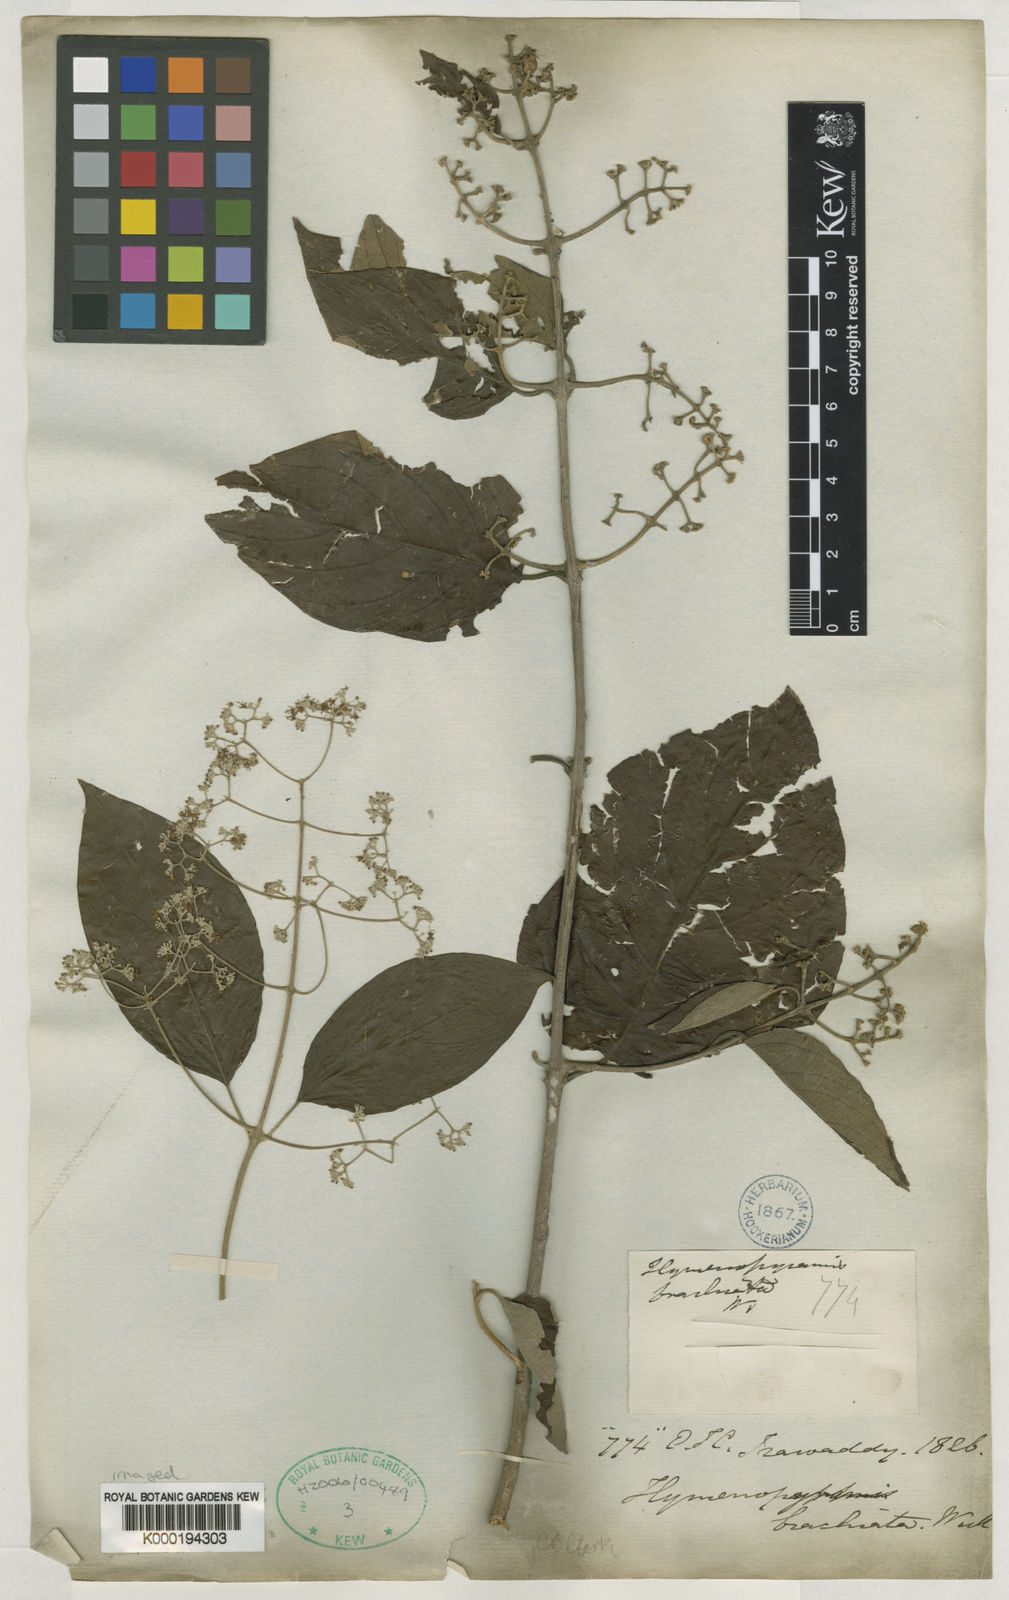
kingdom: Plantae
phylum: Tracheophyta
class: Magnoliopsida
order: Lamiales
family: Lamiaceae
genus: Hymenopyramis
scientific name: Hymenopyramis
